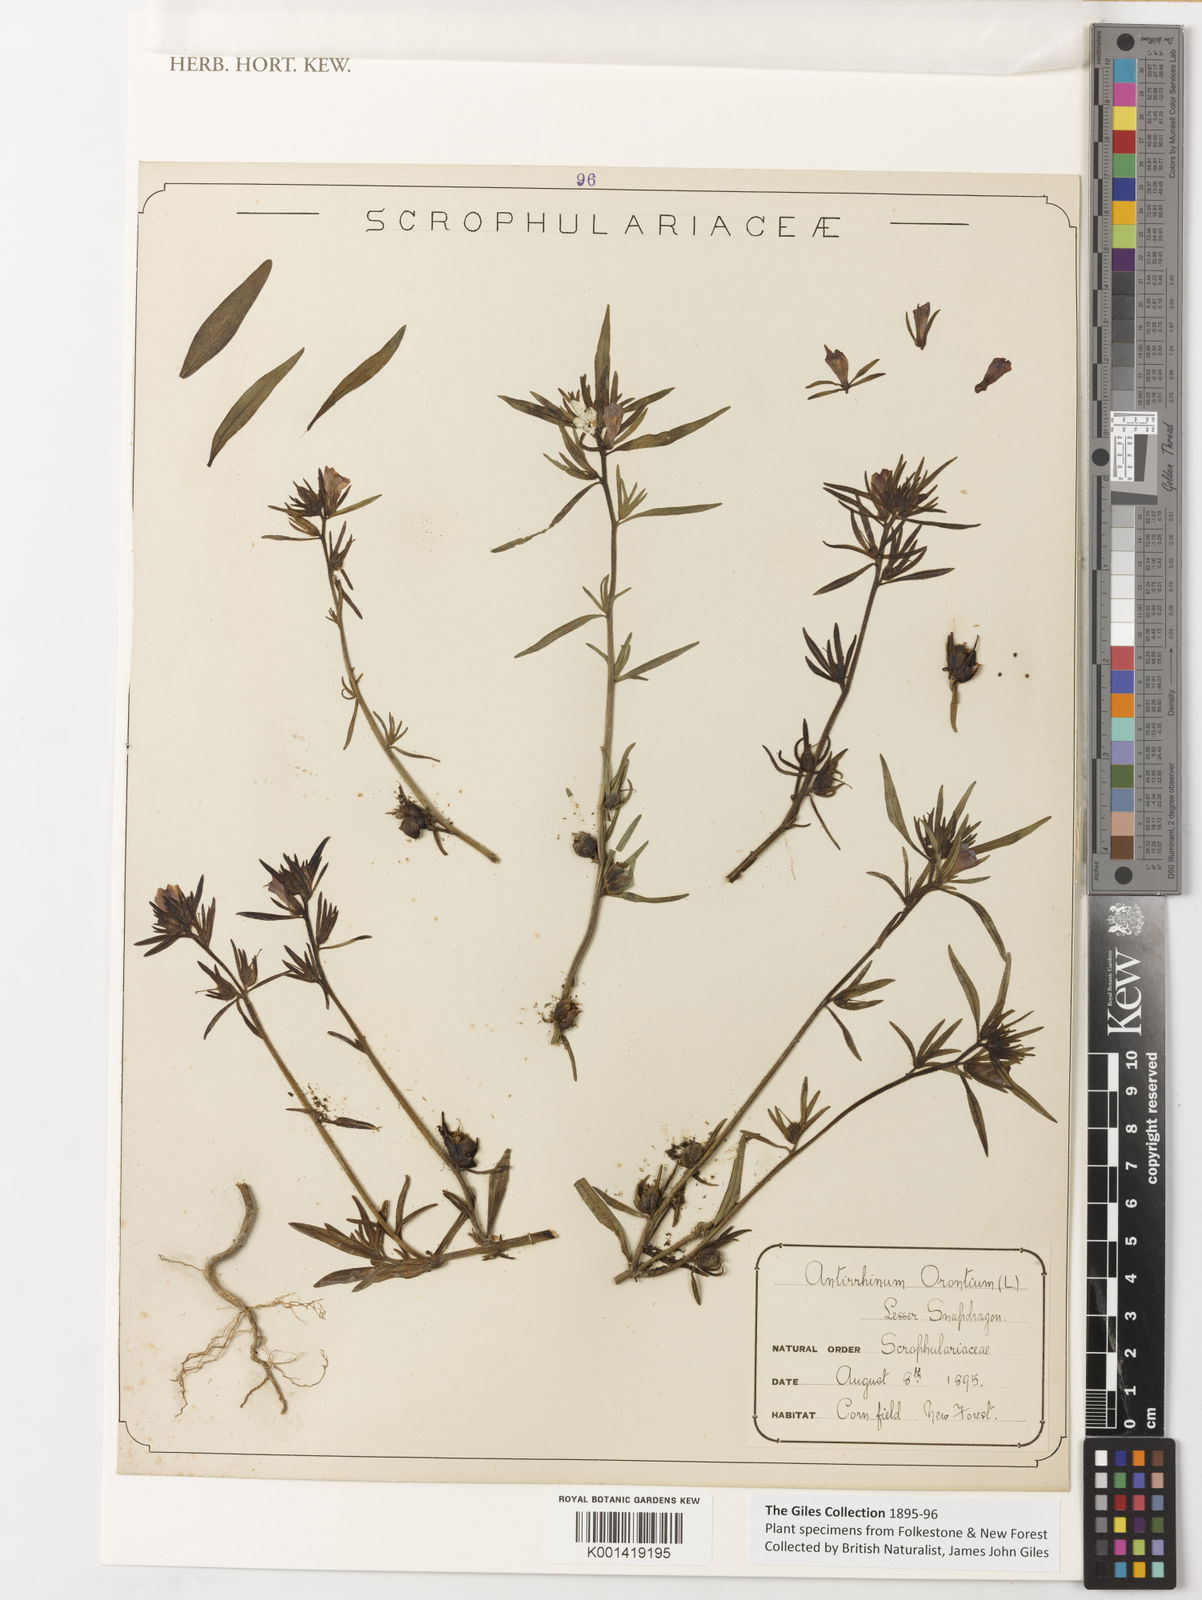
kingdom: Plantae
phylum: Tracheophyta
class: Magnoliopsida
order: Lamiales
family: Plantaginaceae
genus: Misopates
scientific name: Misopates orontium
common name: Weasel's-snout
